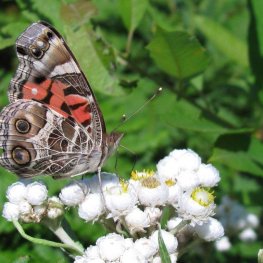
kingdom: Animalia
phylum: Arthropoda
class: Insecta
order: Lepidoptera
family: Nymphalidae
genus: Vanessa
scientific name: Vanessa virginiensis
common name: American Lady
